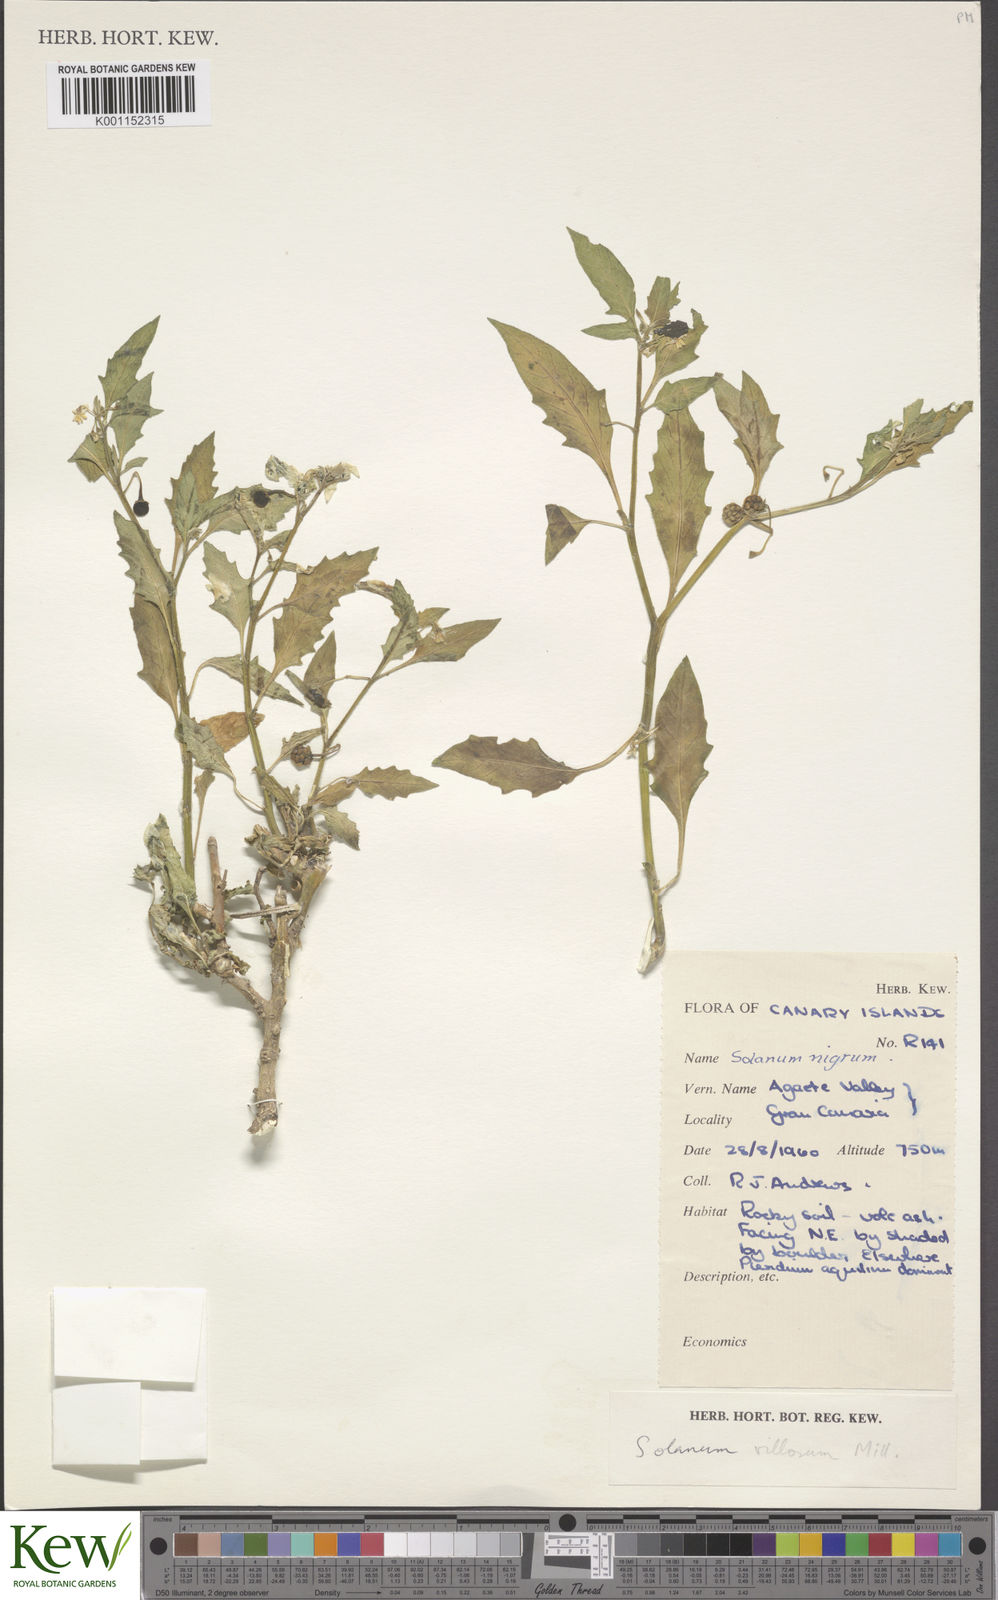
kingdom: Plantae
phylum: Tracheophyta
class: Magnoliopsida
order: Solanales
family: Solanaceae
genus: Solanum
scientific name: Solanum villosum
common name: Red nightshade
